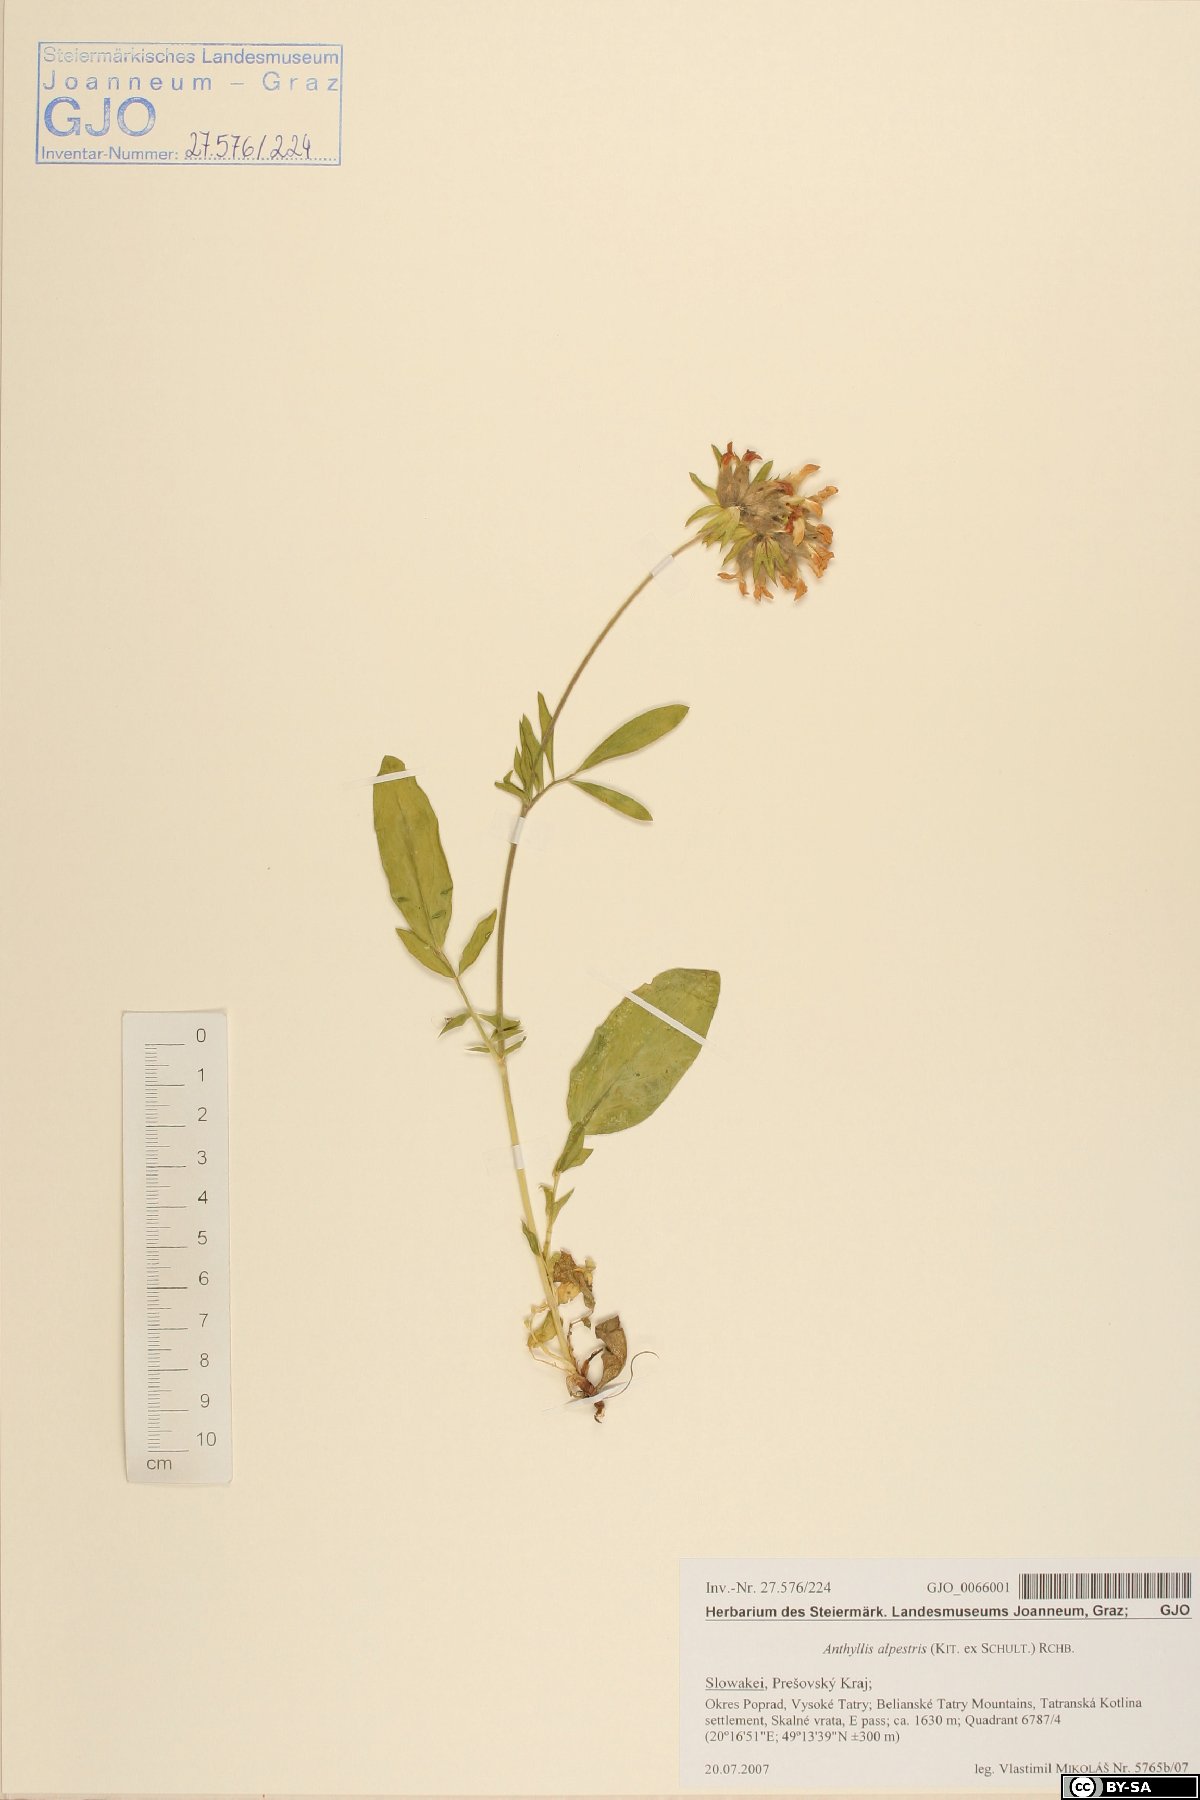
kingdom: Plantae
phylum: Tracheophyta
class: Magnoliopsida
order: Fabales
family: Fabaceae
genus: Anthyllis
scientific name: Anthyllis vulneraria
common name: Kidney vetch
